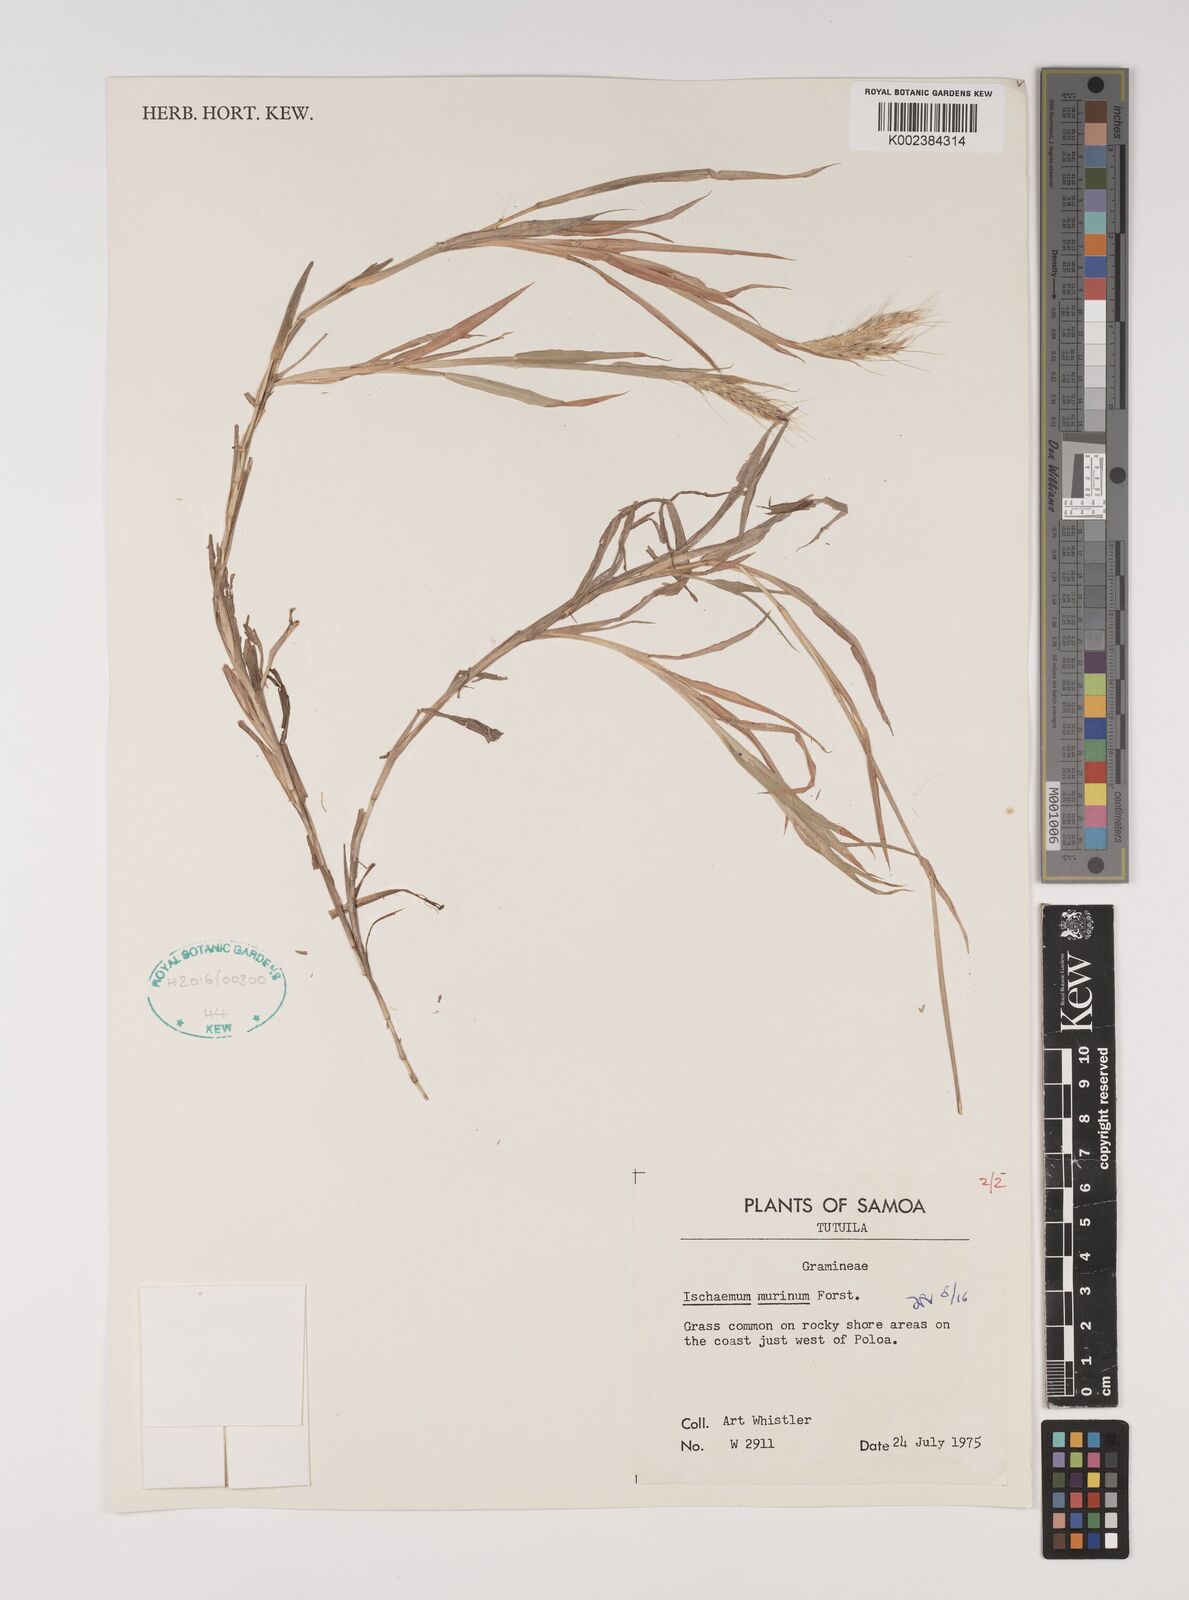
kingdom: Plantae
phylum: Tracheophyta
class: Liliopsida
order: Poales
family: Poaceae
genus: Ischaemum
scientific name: Ischaemum murinum
